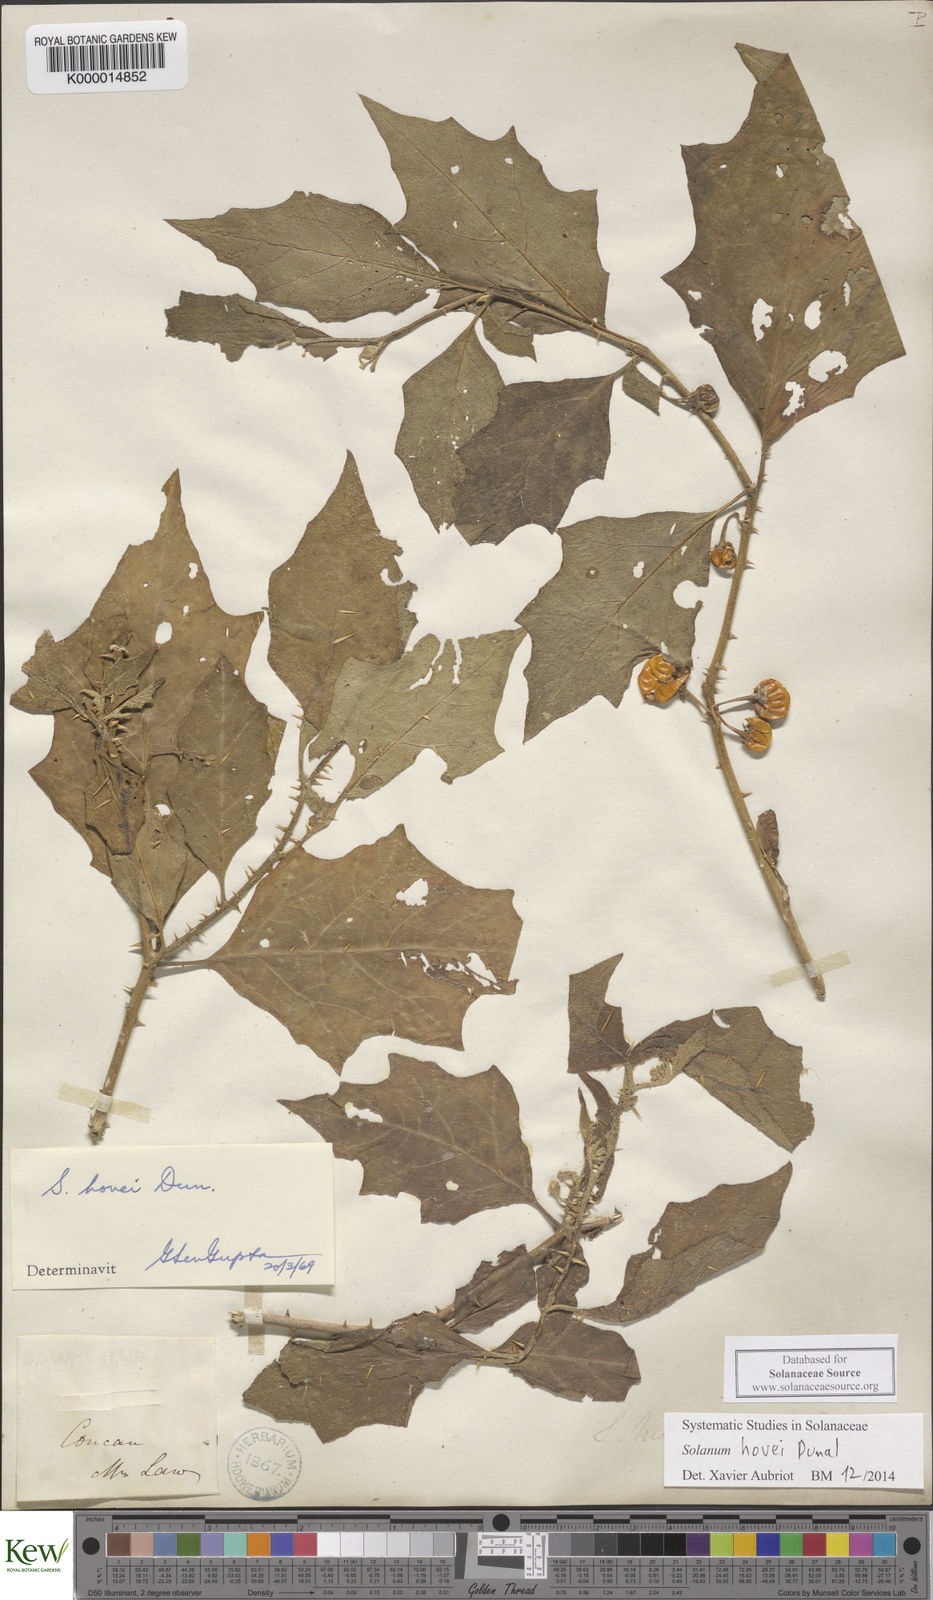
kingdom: Plantae
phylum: Tracheophyta
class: Magnoliopsida
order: Solanales
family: Solanaceae
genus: Solanum
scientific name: Solanum hovei
